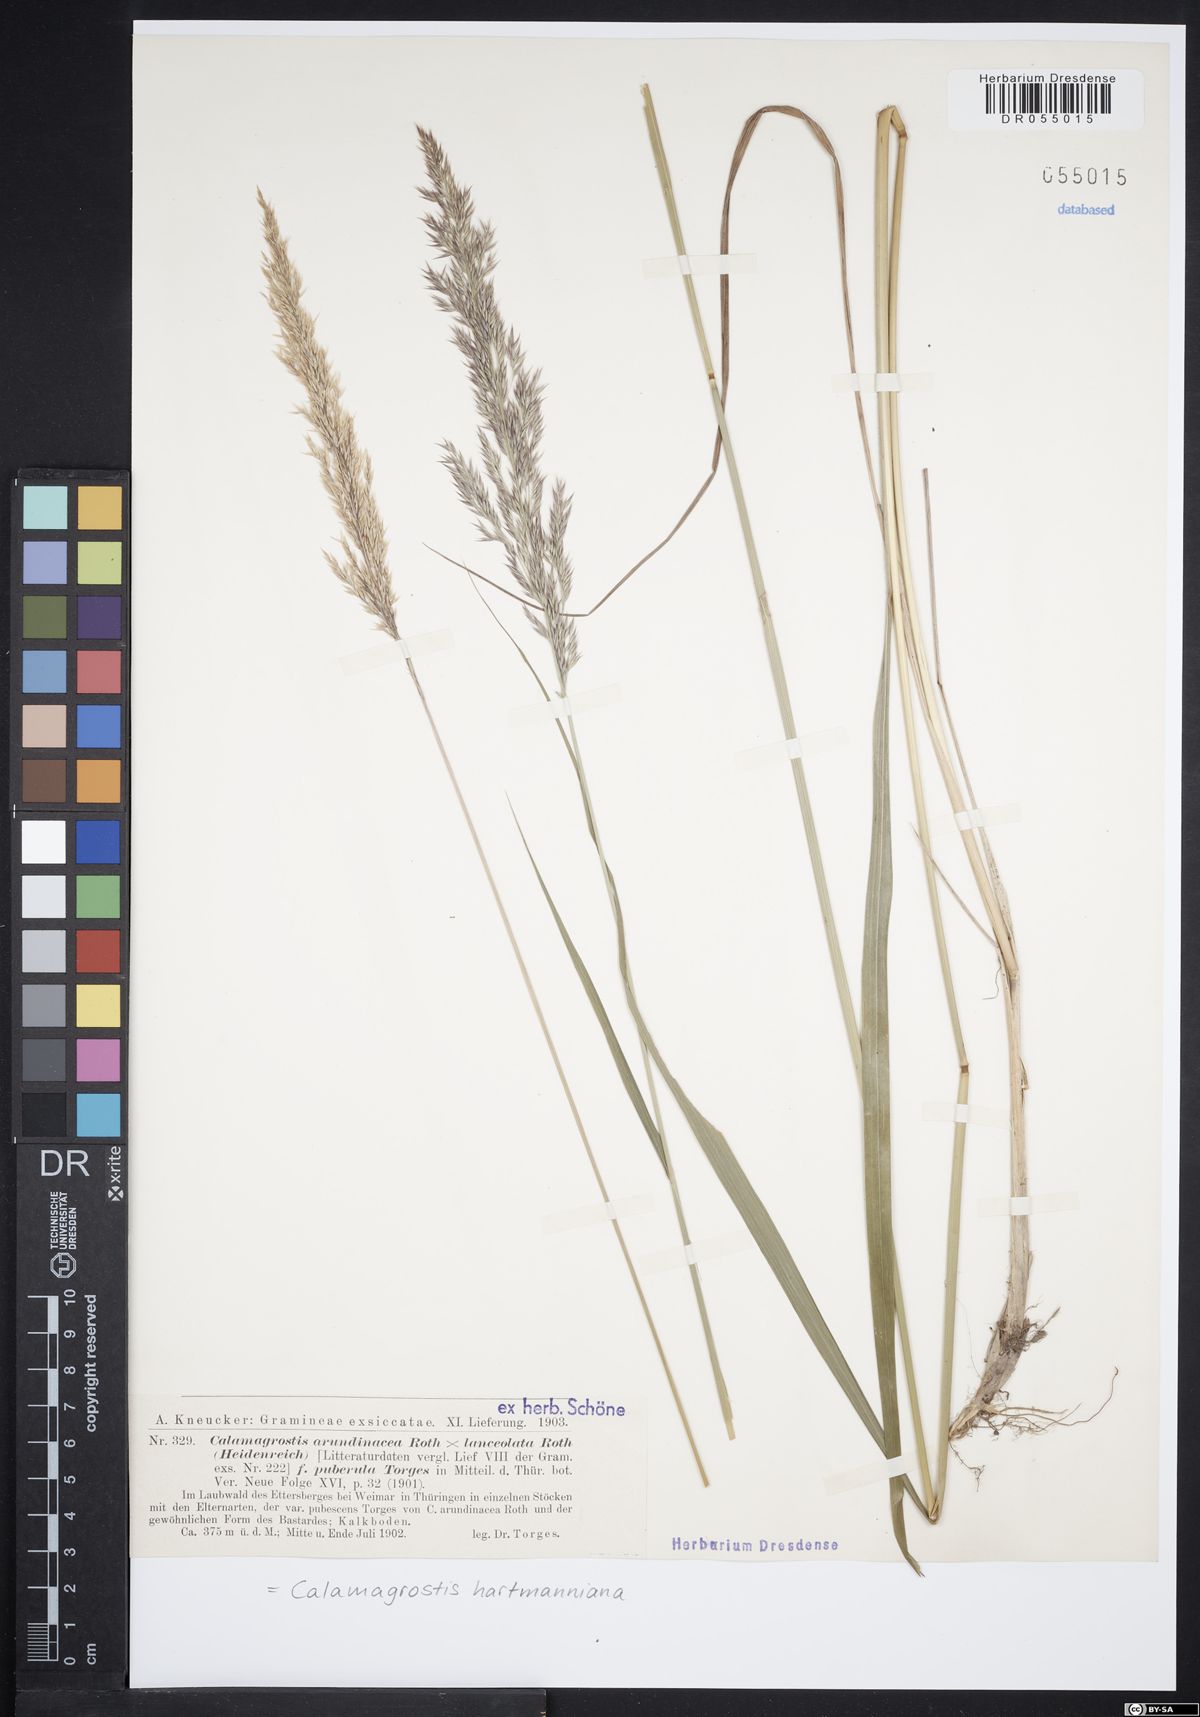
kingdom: Plantae
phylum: Tracheophyta
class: Liliopsida
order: Poales
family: Poaceae
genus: Calamagrostis
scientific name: Calamagrostis hartmaniana
